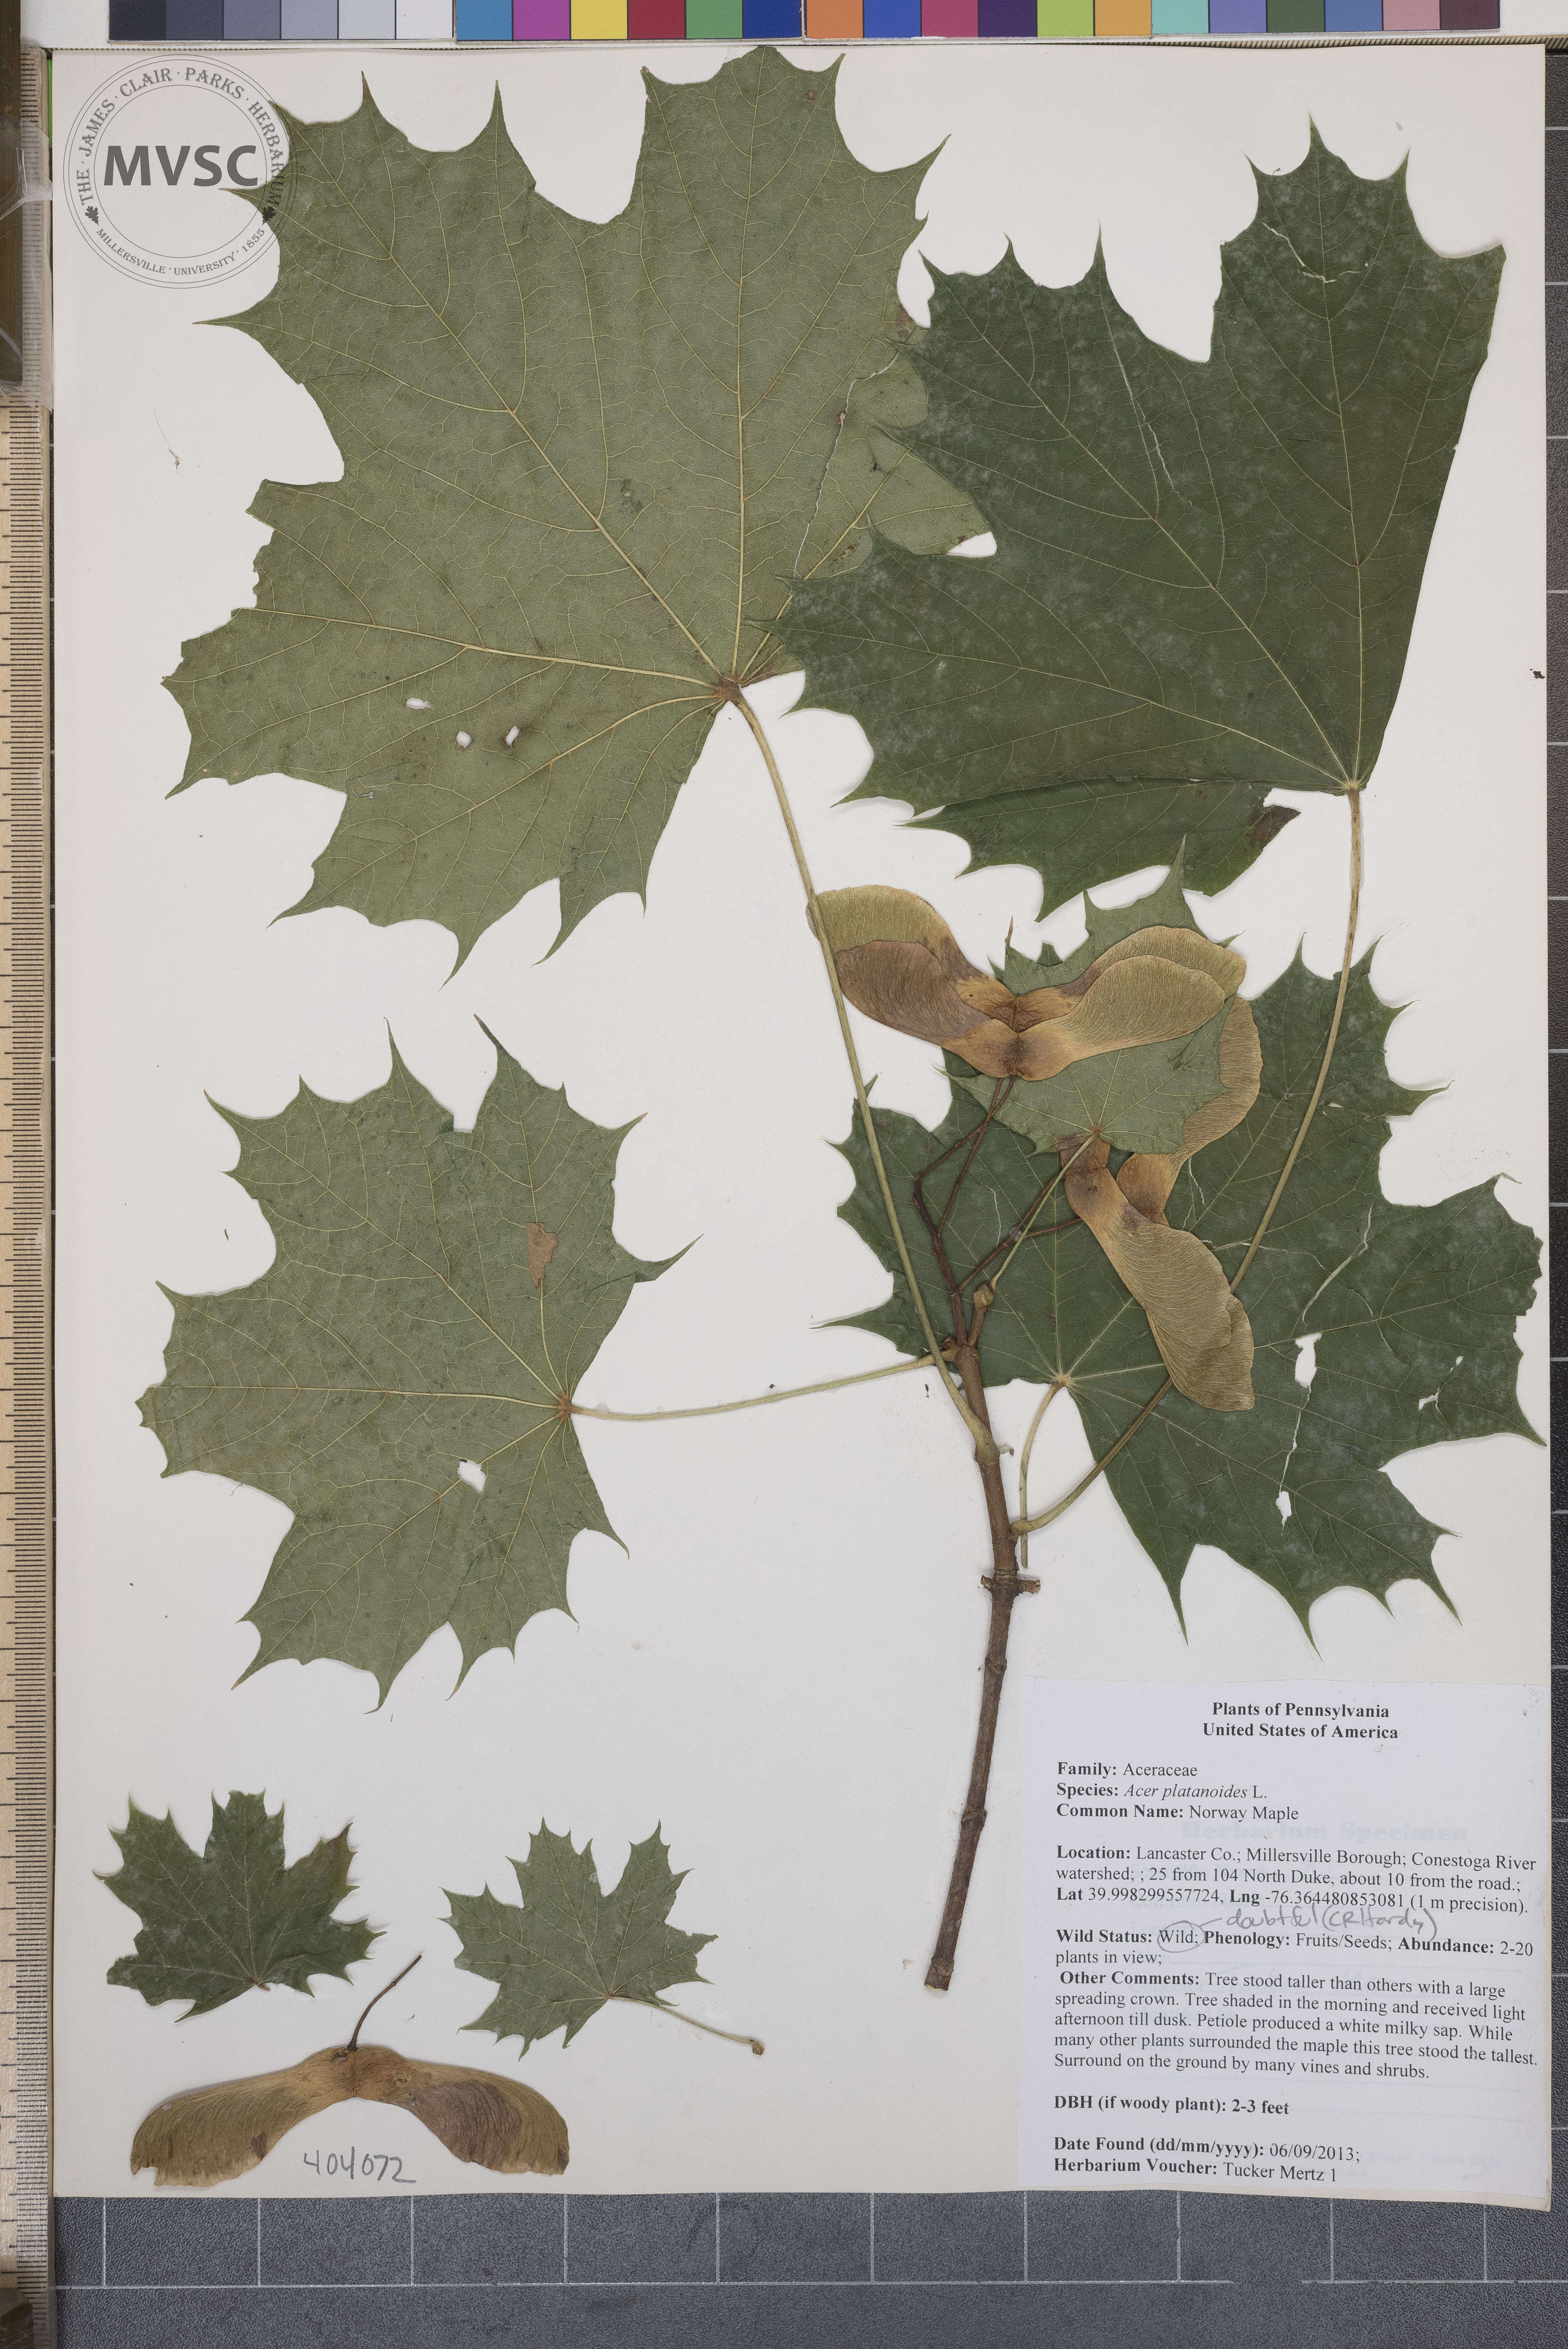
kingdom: Plantae
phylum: Tracheophyta
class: Magnoliopsida
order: Sapindales
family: Sapindaceae
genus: Acer
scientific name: Acer platanoides
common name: Norway Maple
